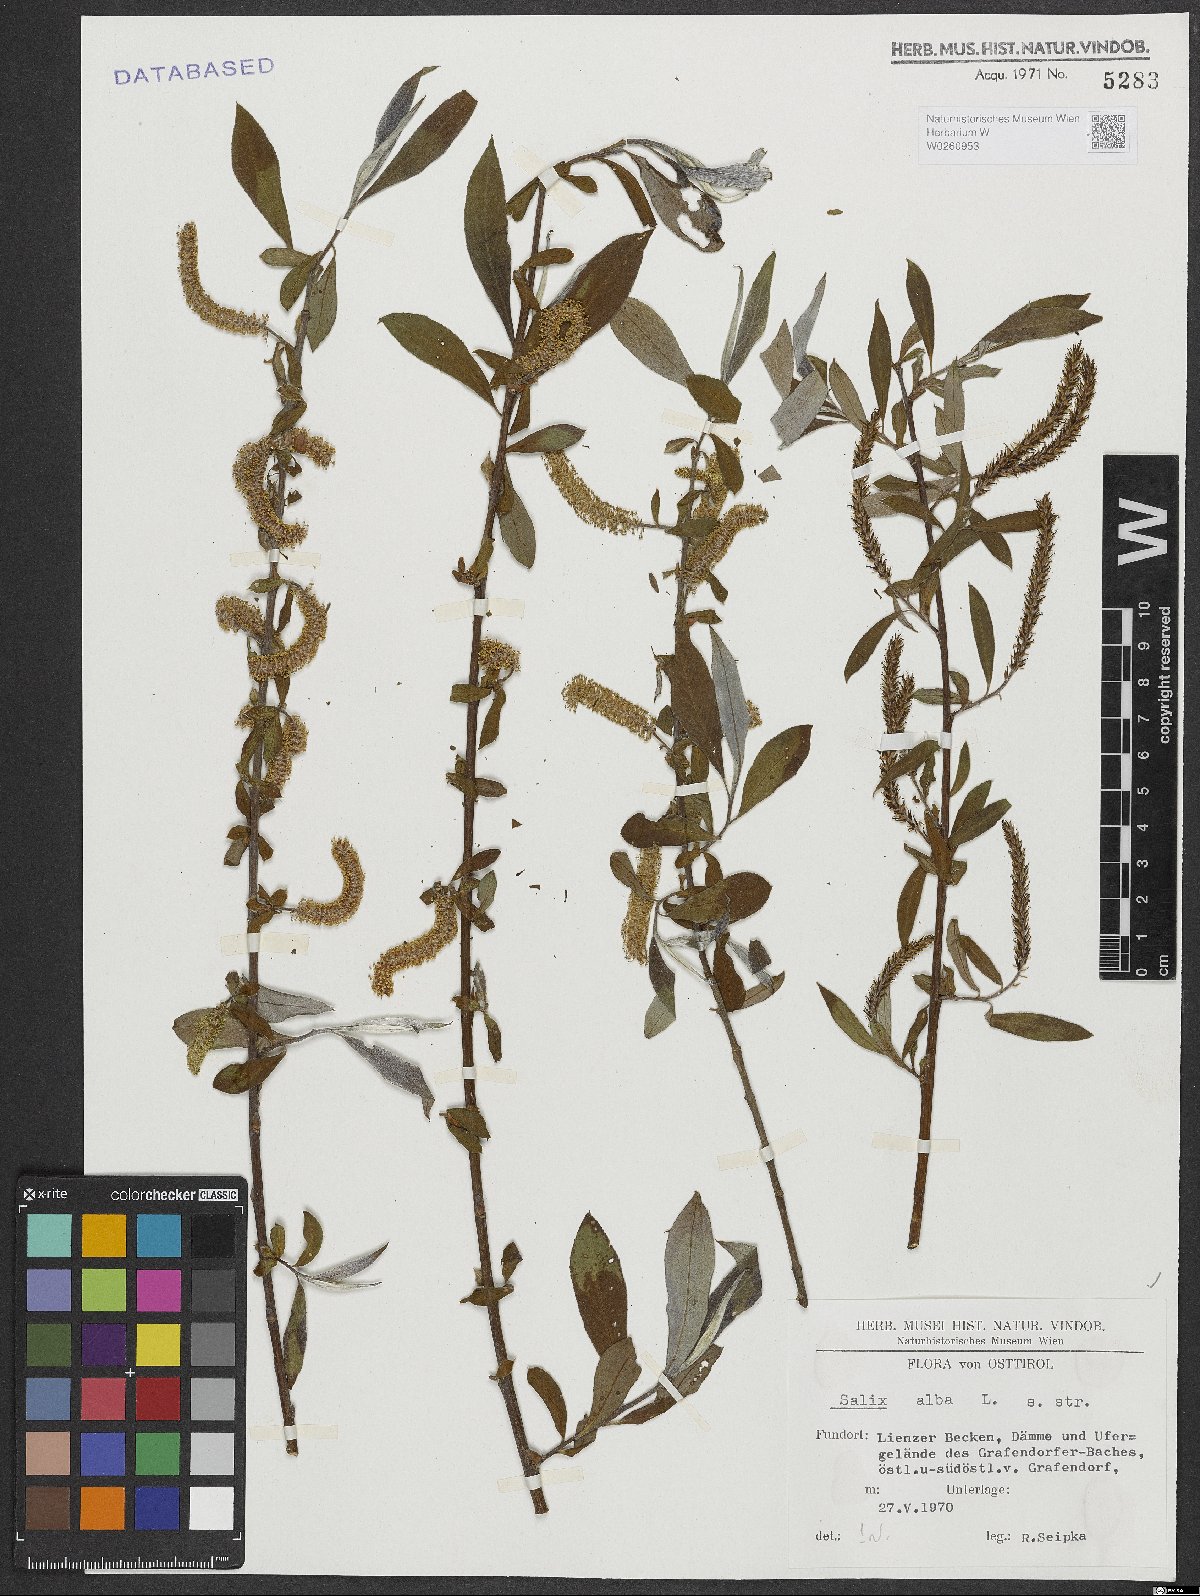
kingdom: Plantae
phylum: Tracheophyta
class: Magnoliopsida
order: Malpighiales
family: Salicaceae
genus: Salix
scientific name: Salix alba
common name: White willow
